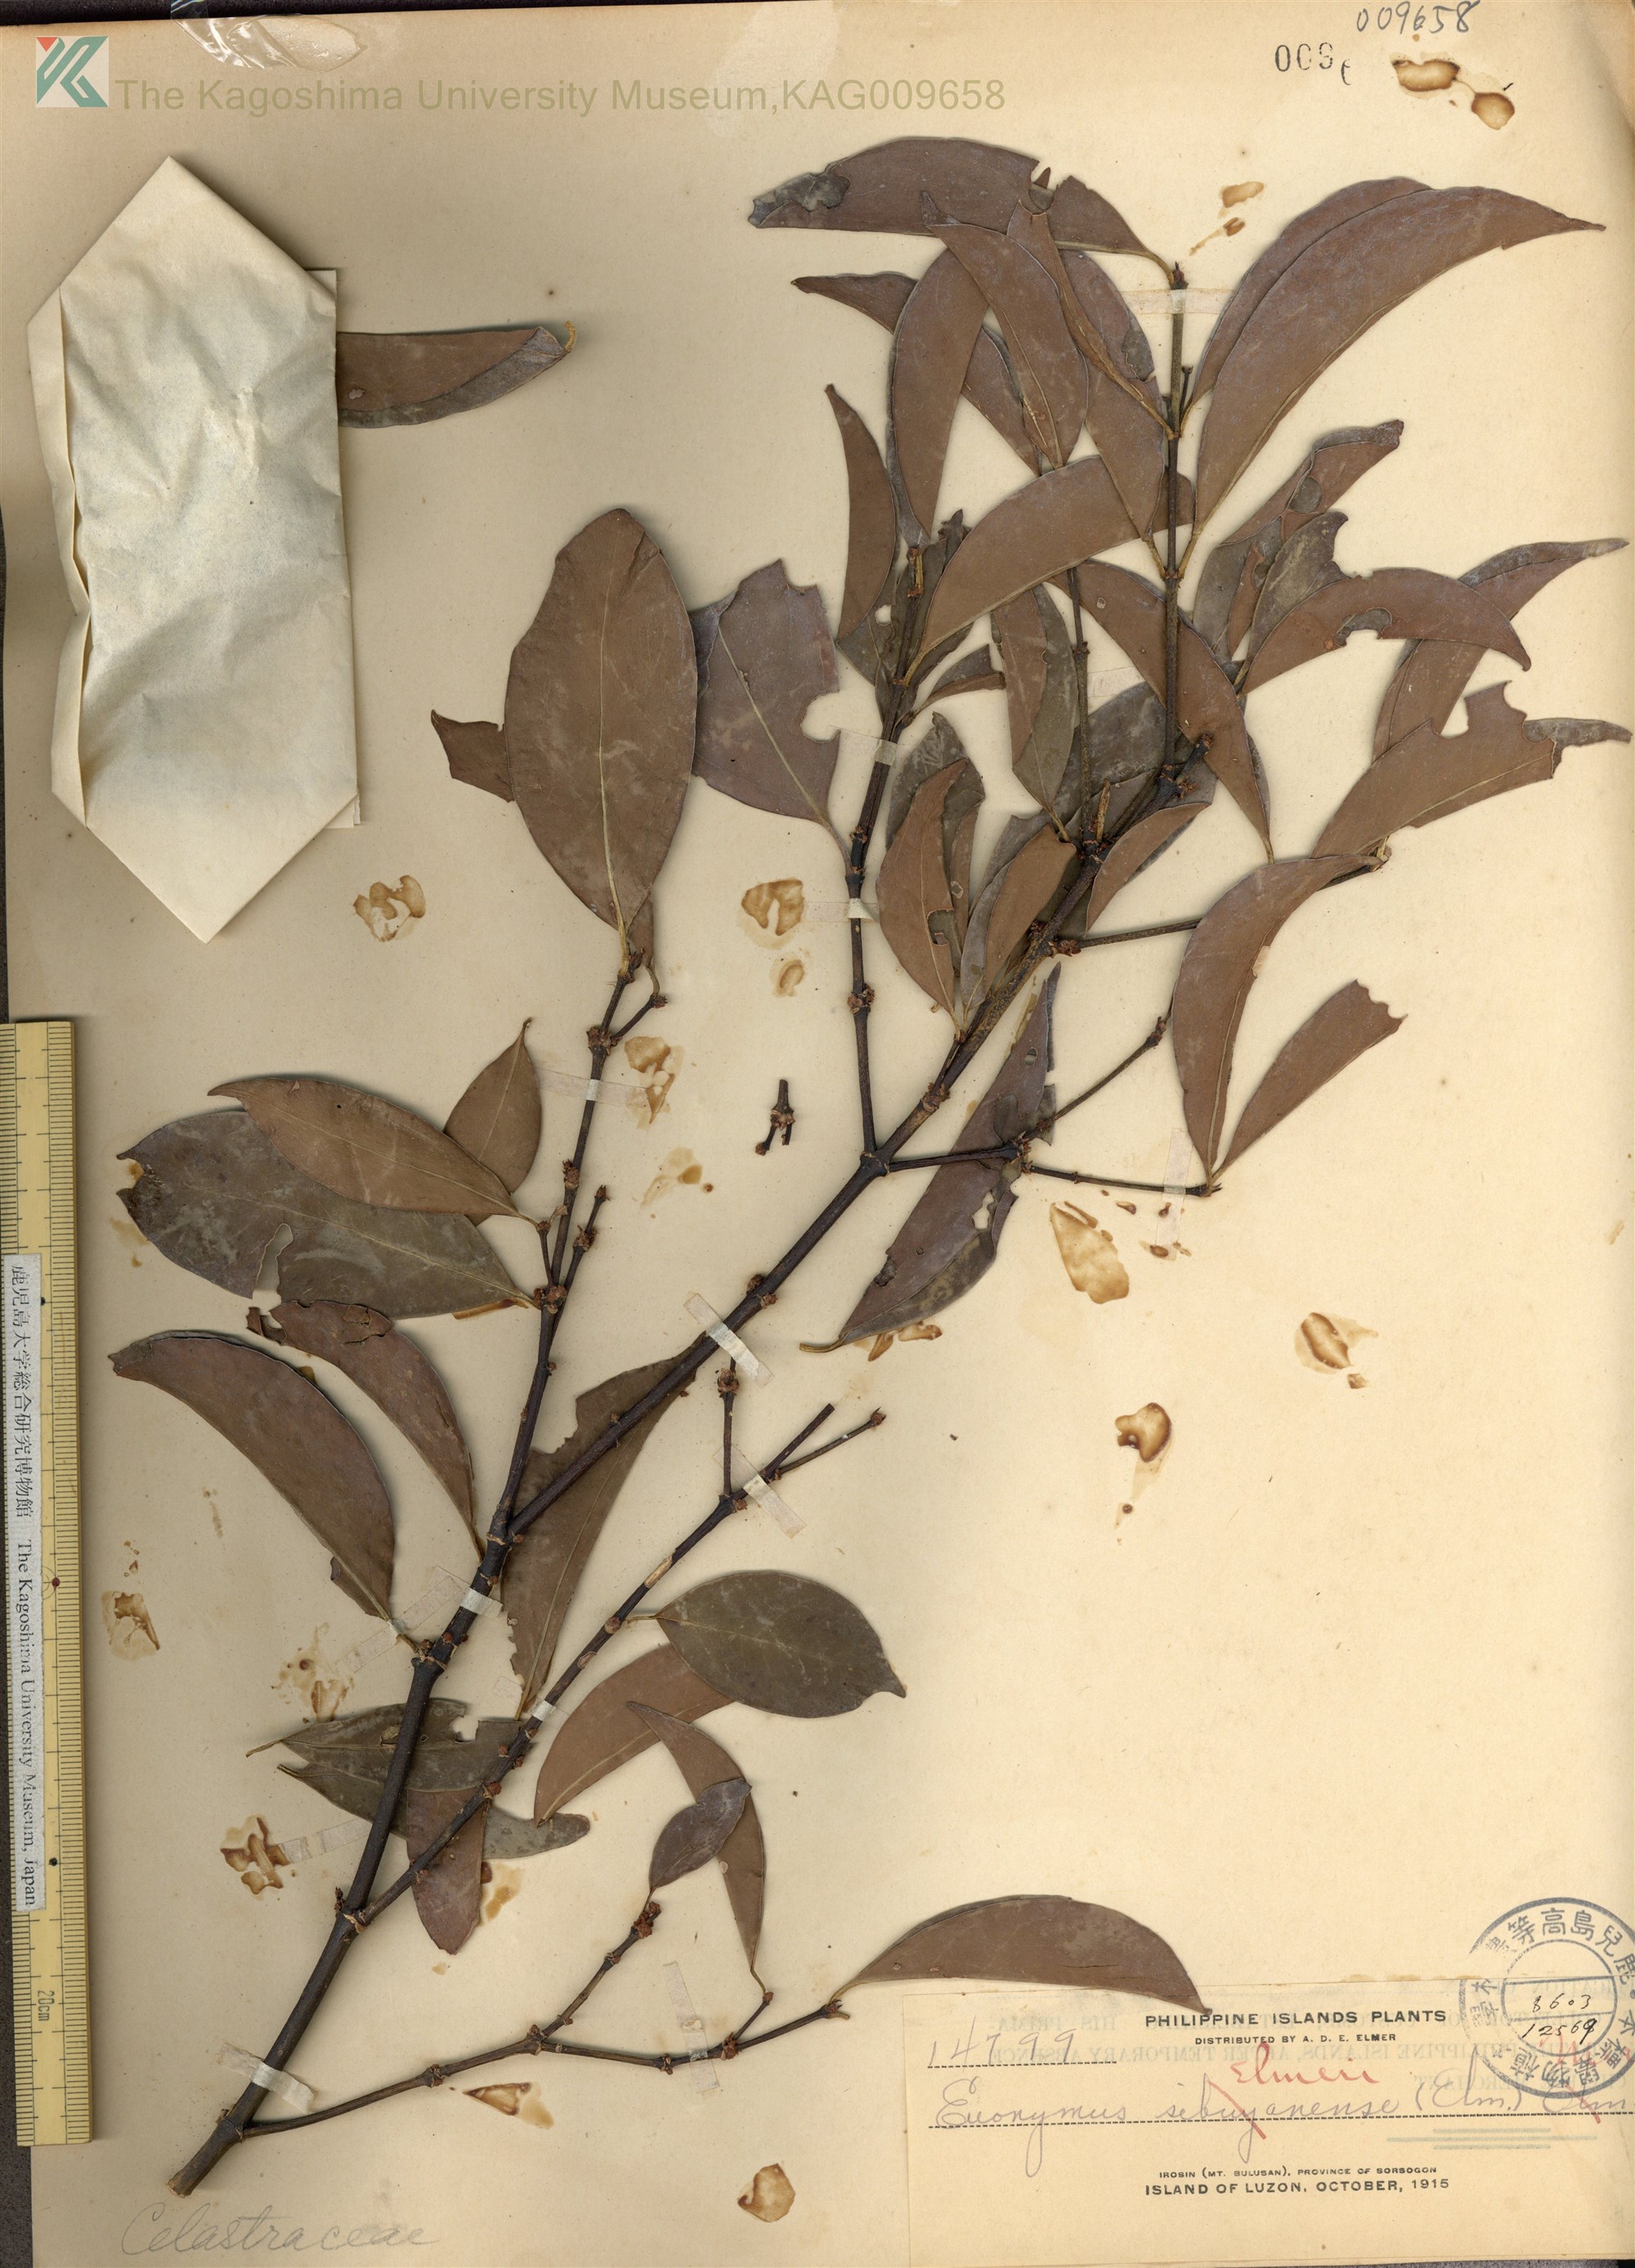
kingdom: Plantae
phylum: Tracheophyta
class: Magnoliopsida
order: Celastrales
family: Celastraceae
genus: Euonymus
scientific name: Euonymus indicus
